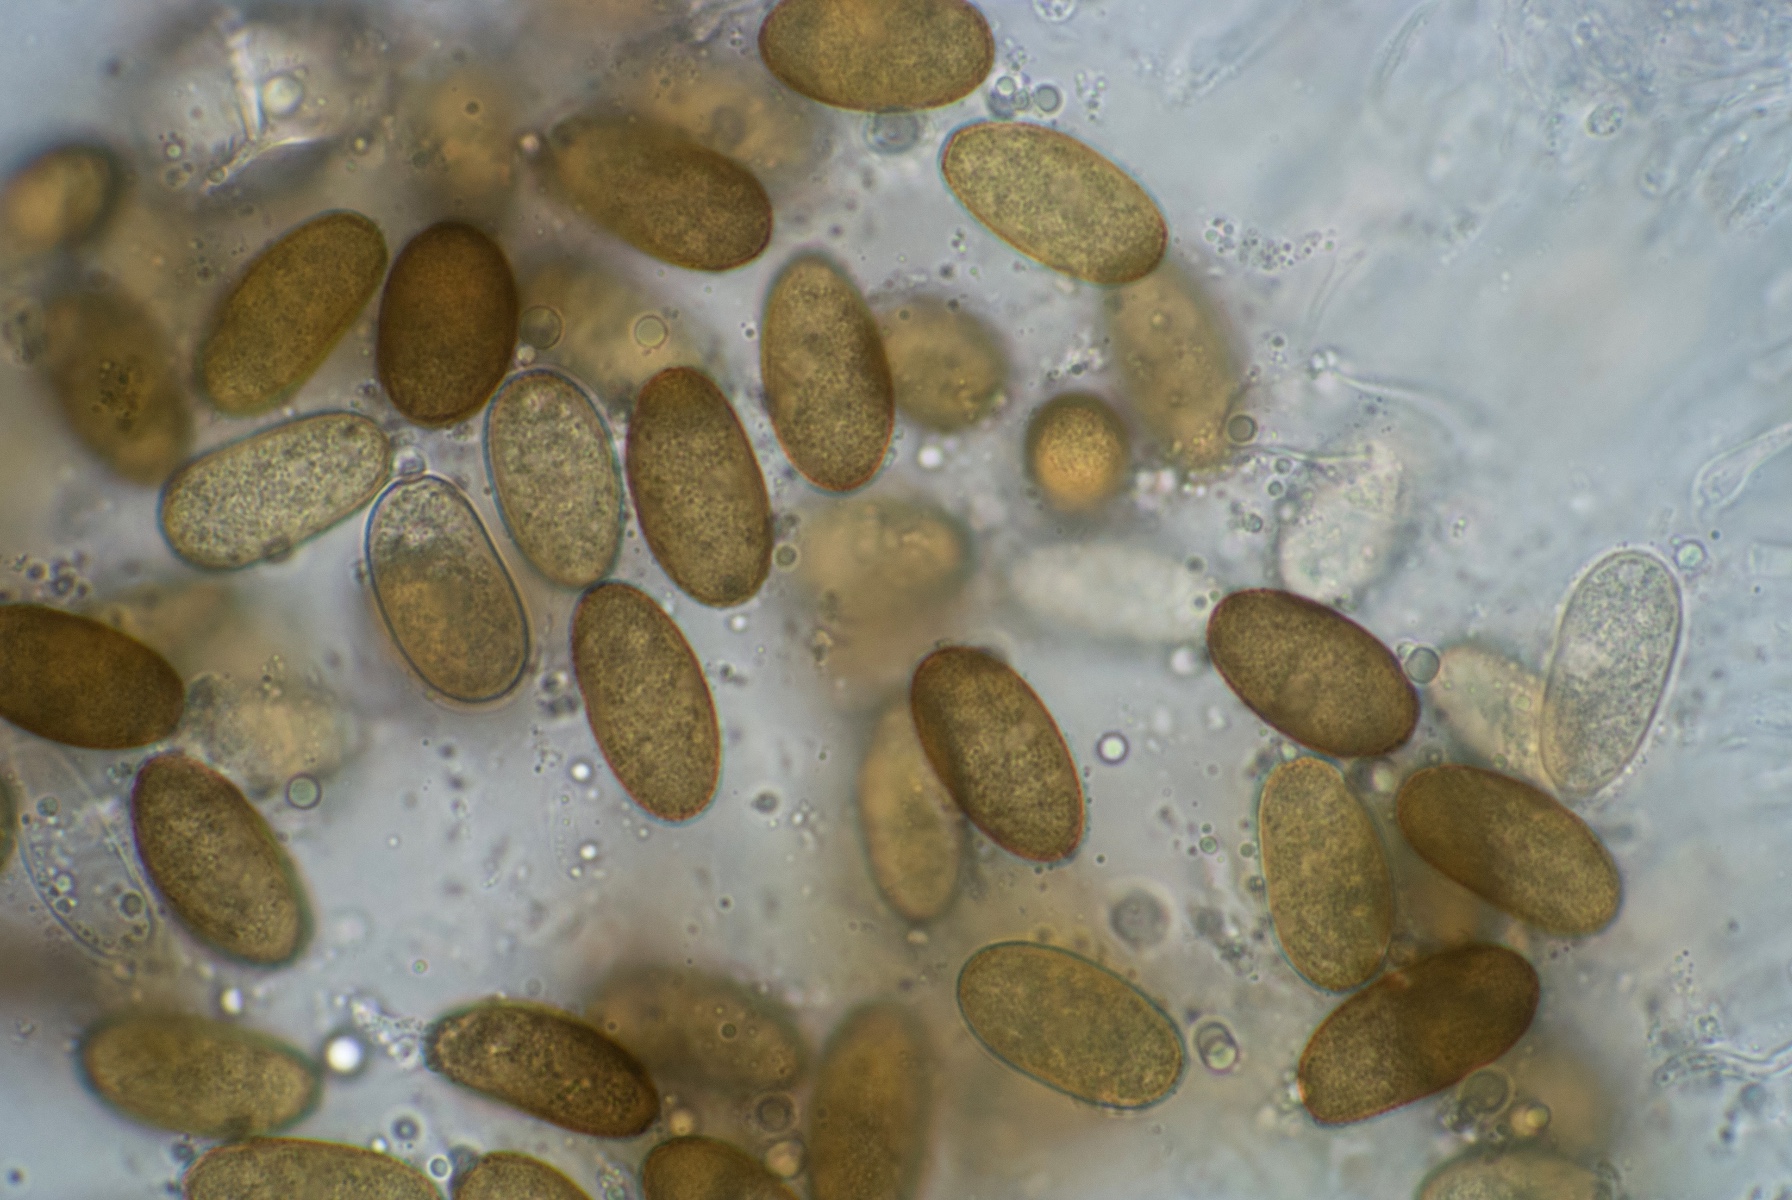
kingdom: Fungi
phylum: Ascomycota
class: Dothideomycetes
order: Botryosphaeriales
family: Botryosphaeriaceae
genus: Diplodia
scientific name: Diplodia crataegi
